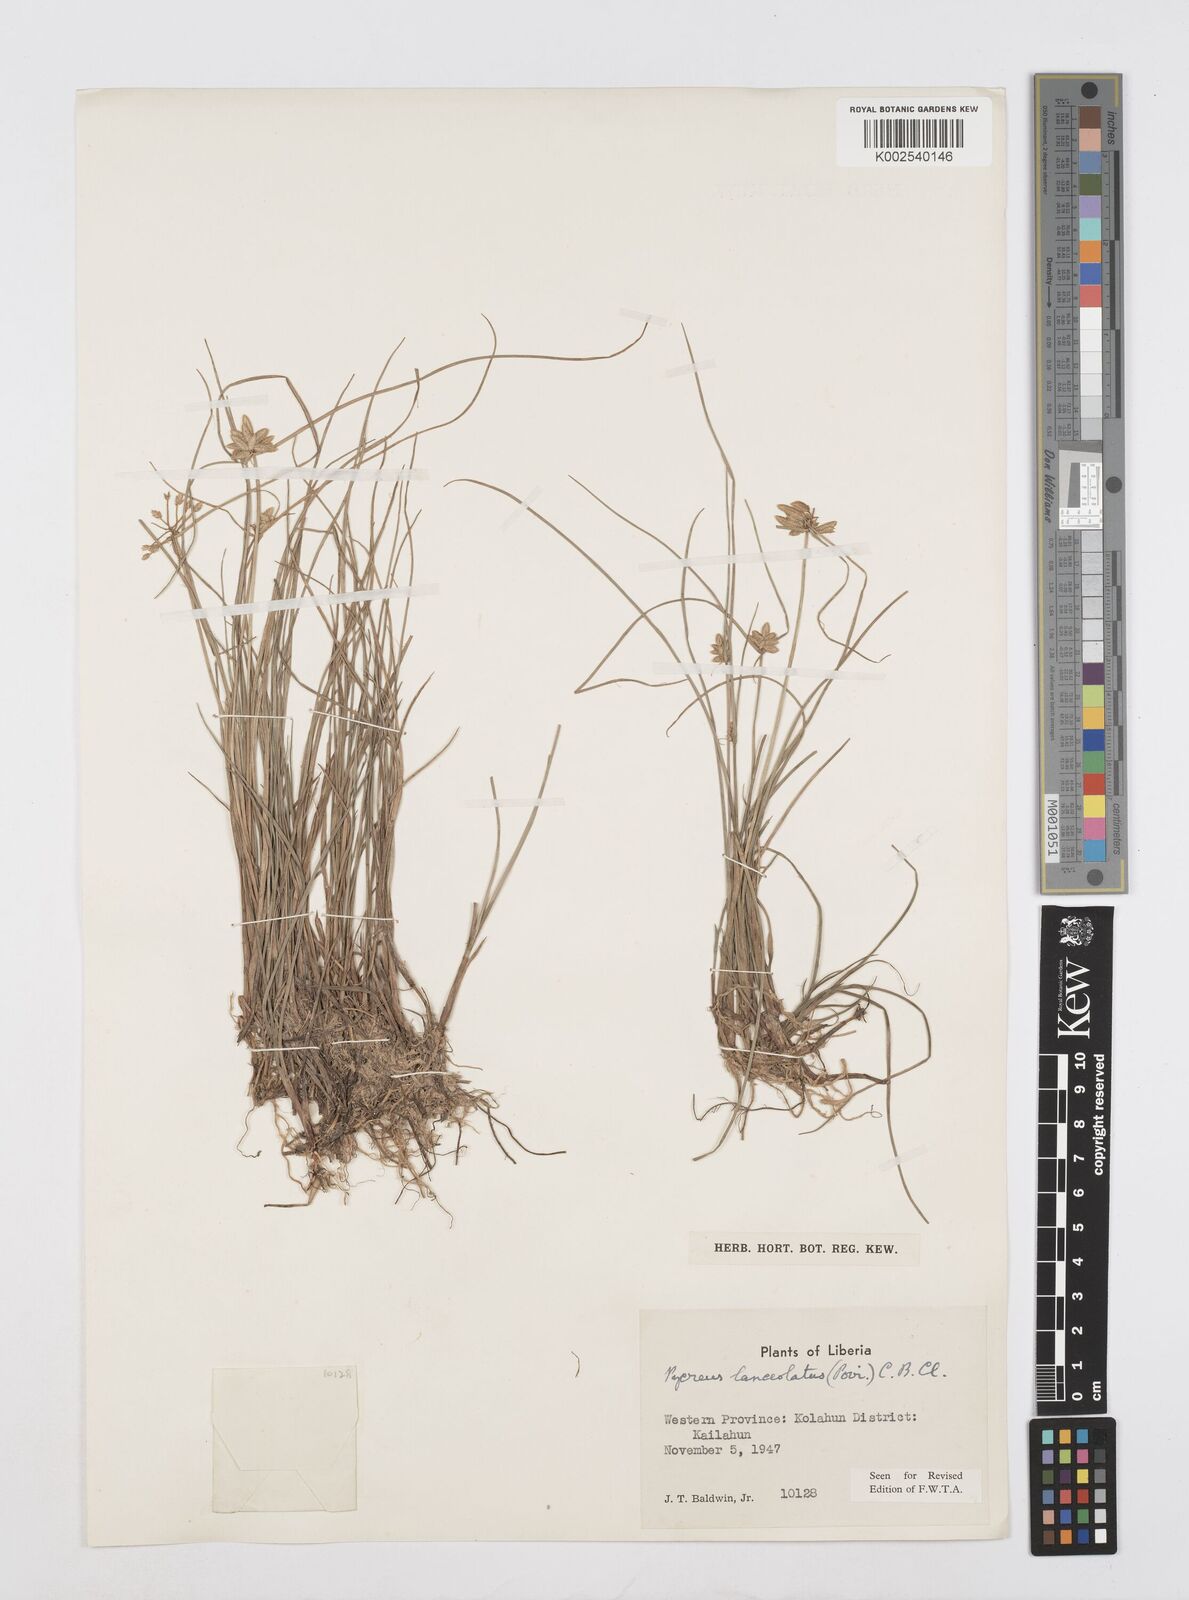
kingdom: Plantae
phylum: Tracheophyta
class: Liliopsida
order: Poales
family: Cyperaceae
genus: Cyperus
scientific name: Cyperus
